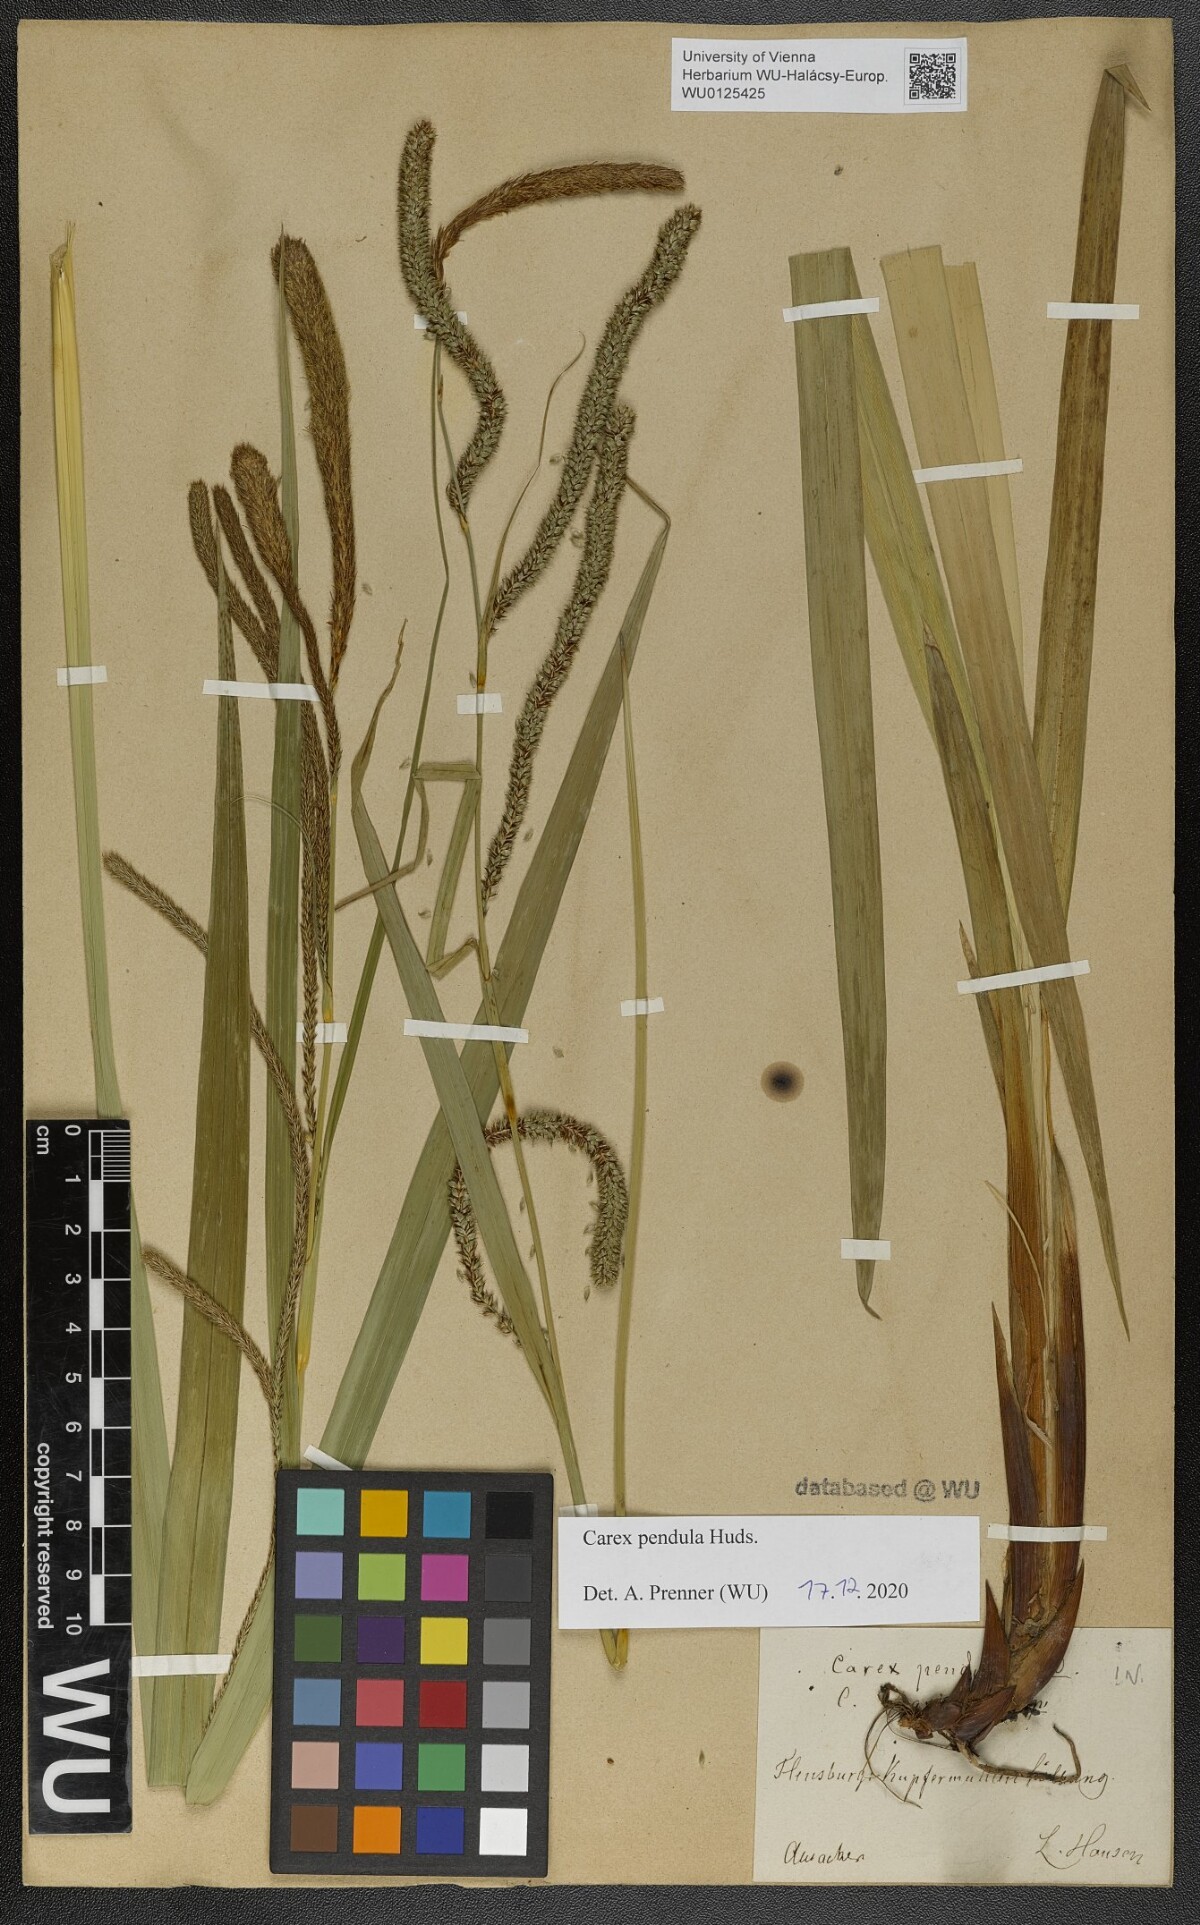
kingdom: Plantae
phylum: Tracheophyta
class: Liliopsida
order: Poales
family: Cyperaceae
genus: Carex
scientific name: Carex pendula
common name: Pendulous sedge
